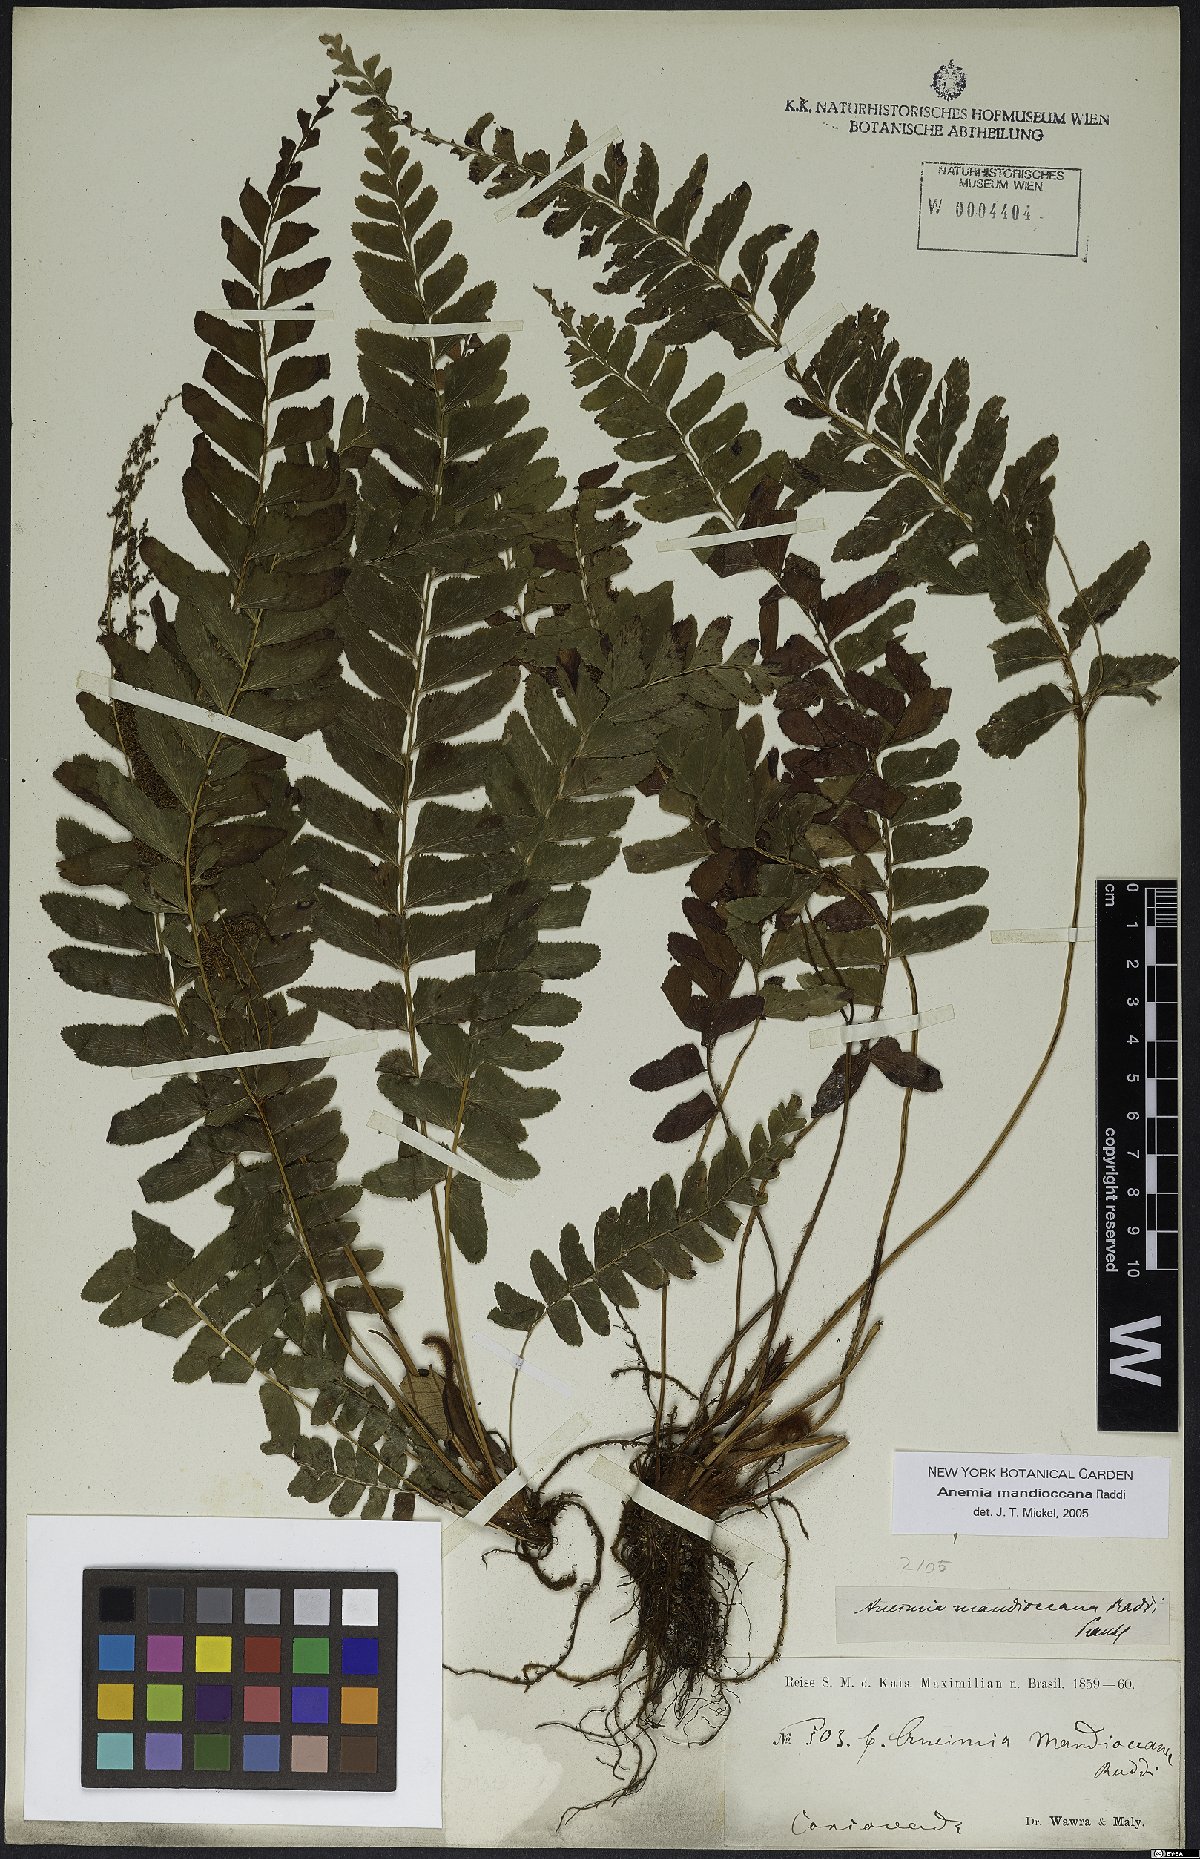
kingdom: Plantae
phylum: Tracheophyta
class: Polypodiopsida
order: Schizaeales
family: Anemiaceae
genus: Anemia
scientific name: Anemia mandiocana
